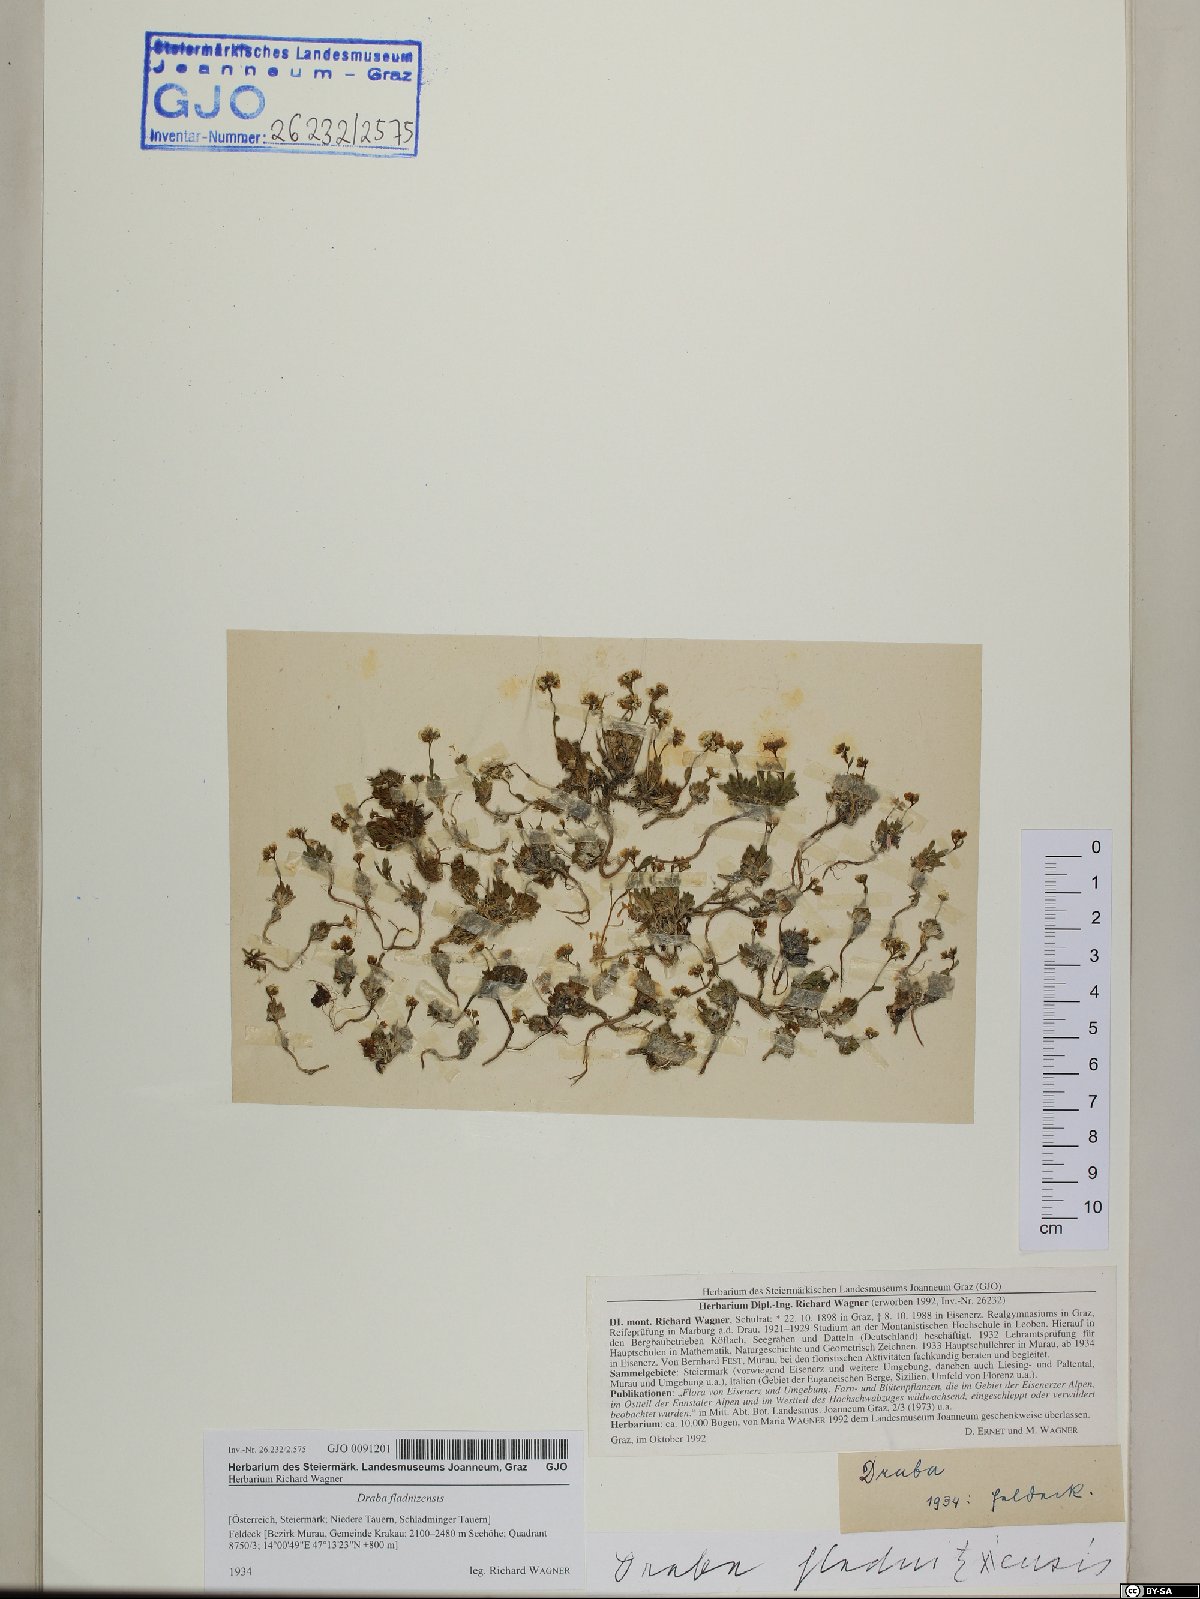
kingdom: Plantae
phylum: Tracheophyta
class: Magnoliopsida
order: Brassicales
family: Brassicaceae
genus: Draba
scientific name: Draba fladnizensis
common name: Austrian draba
